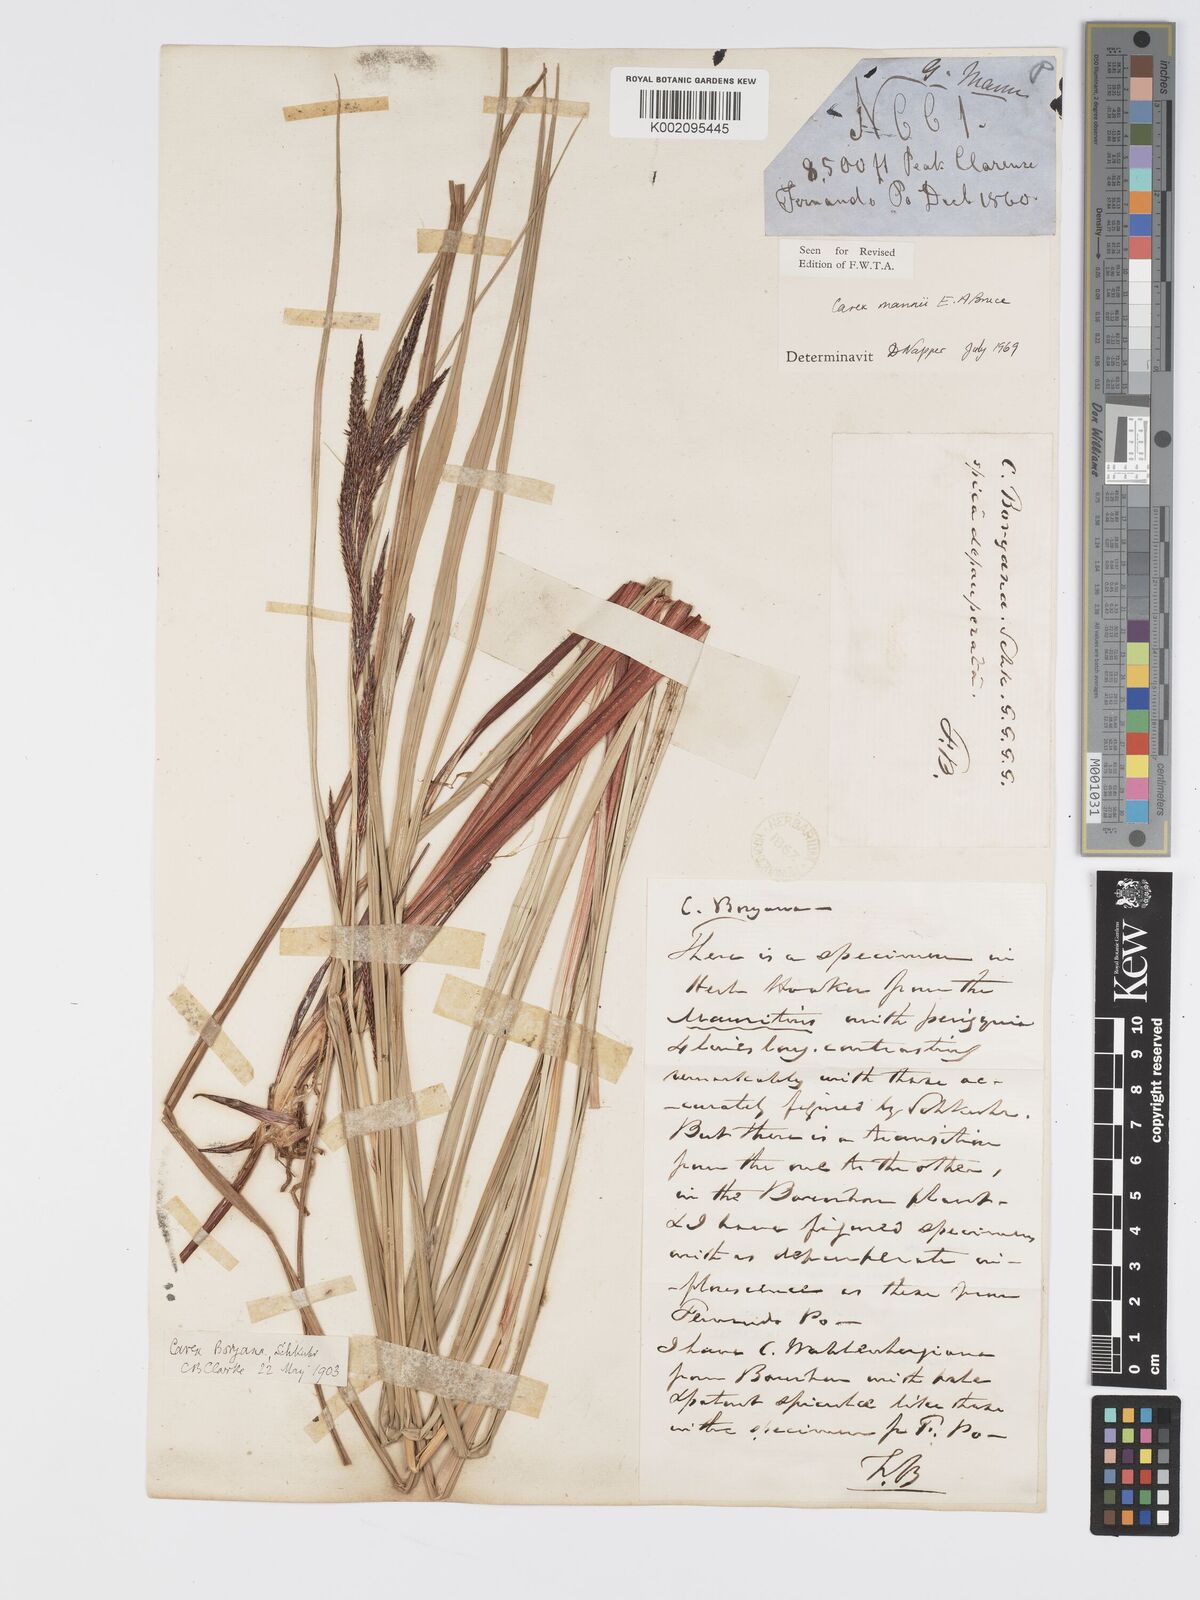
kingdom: Plantae
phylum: Tracheophyta
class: Liliopsida
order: Poales
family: Cyperaceae
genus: Carex
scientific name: Carex mannii
